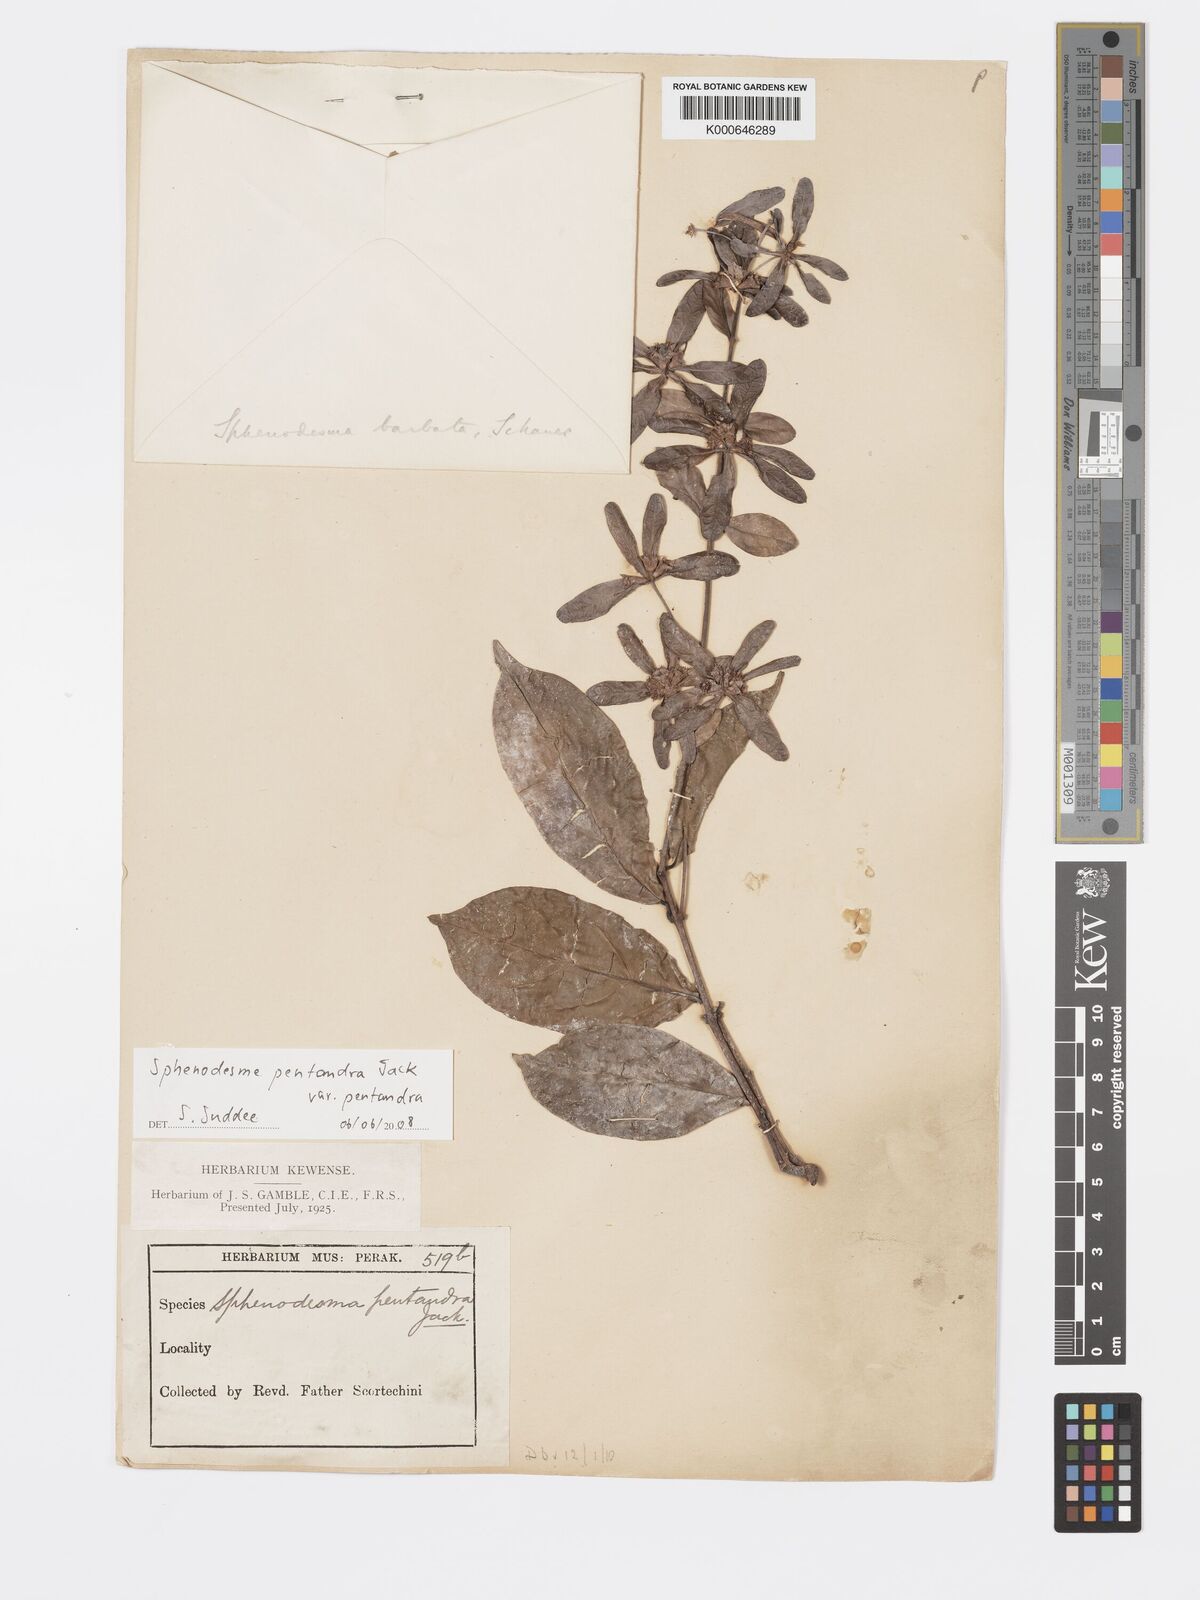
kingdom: Plantae
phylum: Tracheophyta
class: Magnoliopsida
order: Lamiales
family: Lamiaceae
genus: Sphenodesme
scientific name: Sphenodesme pentandra
